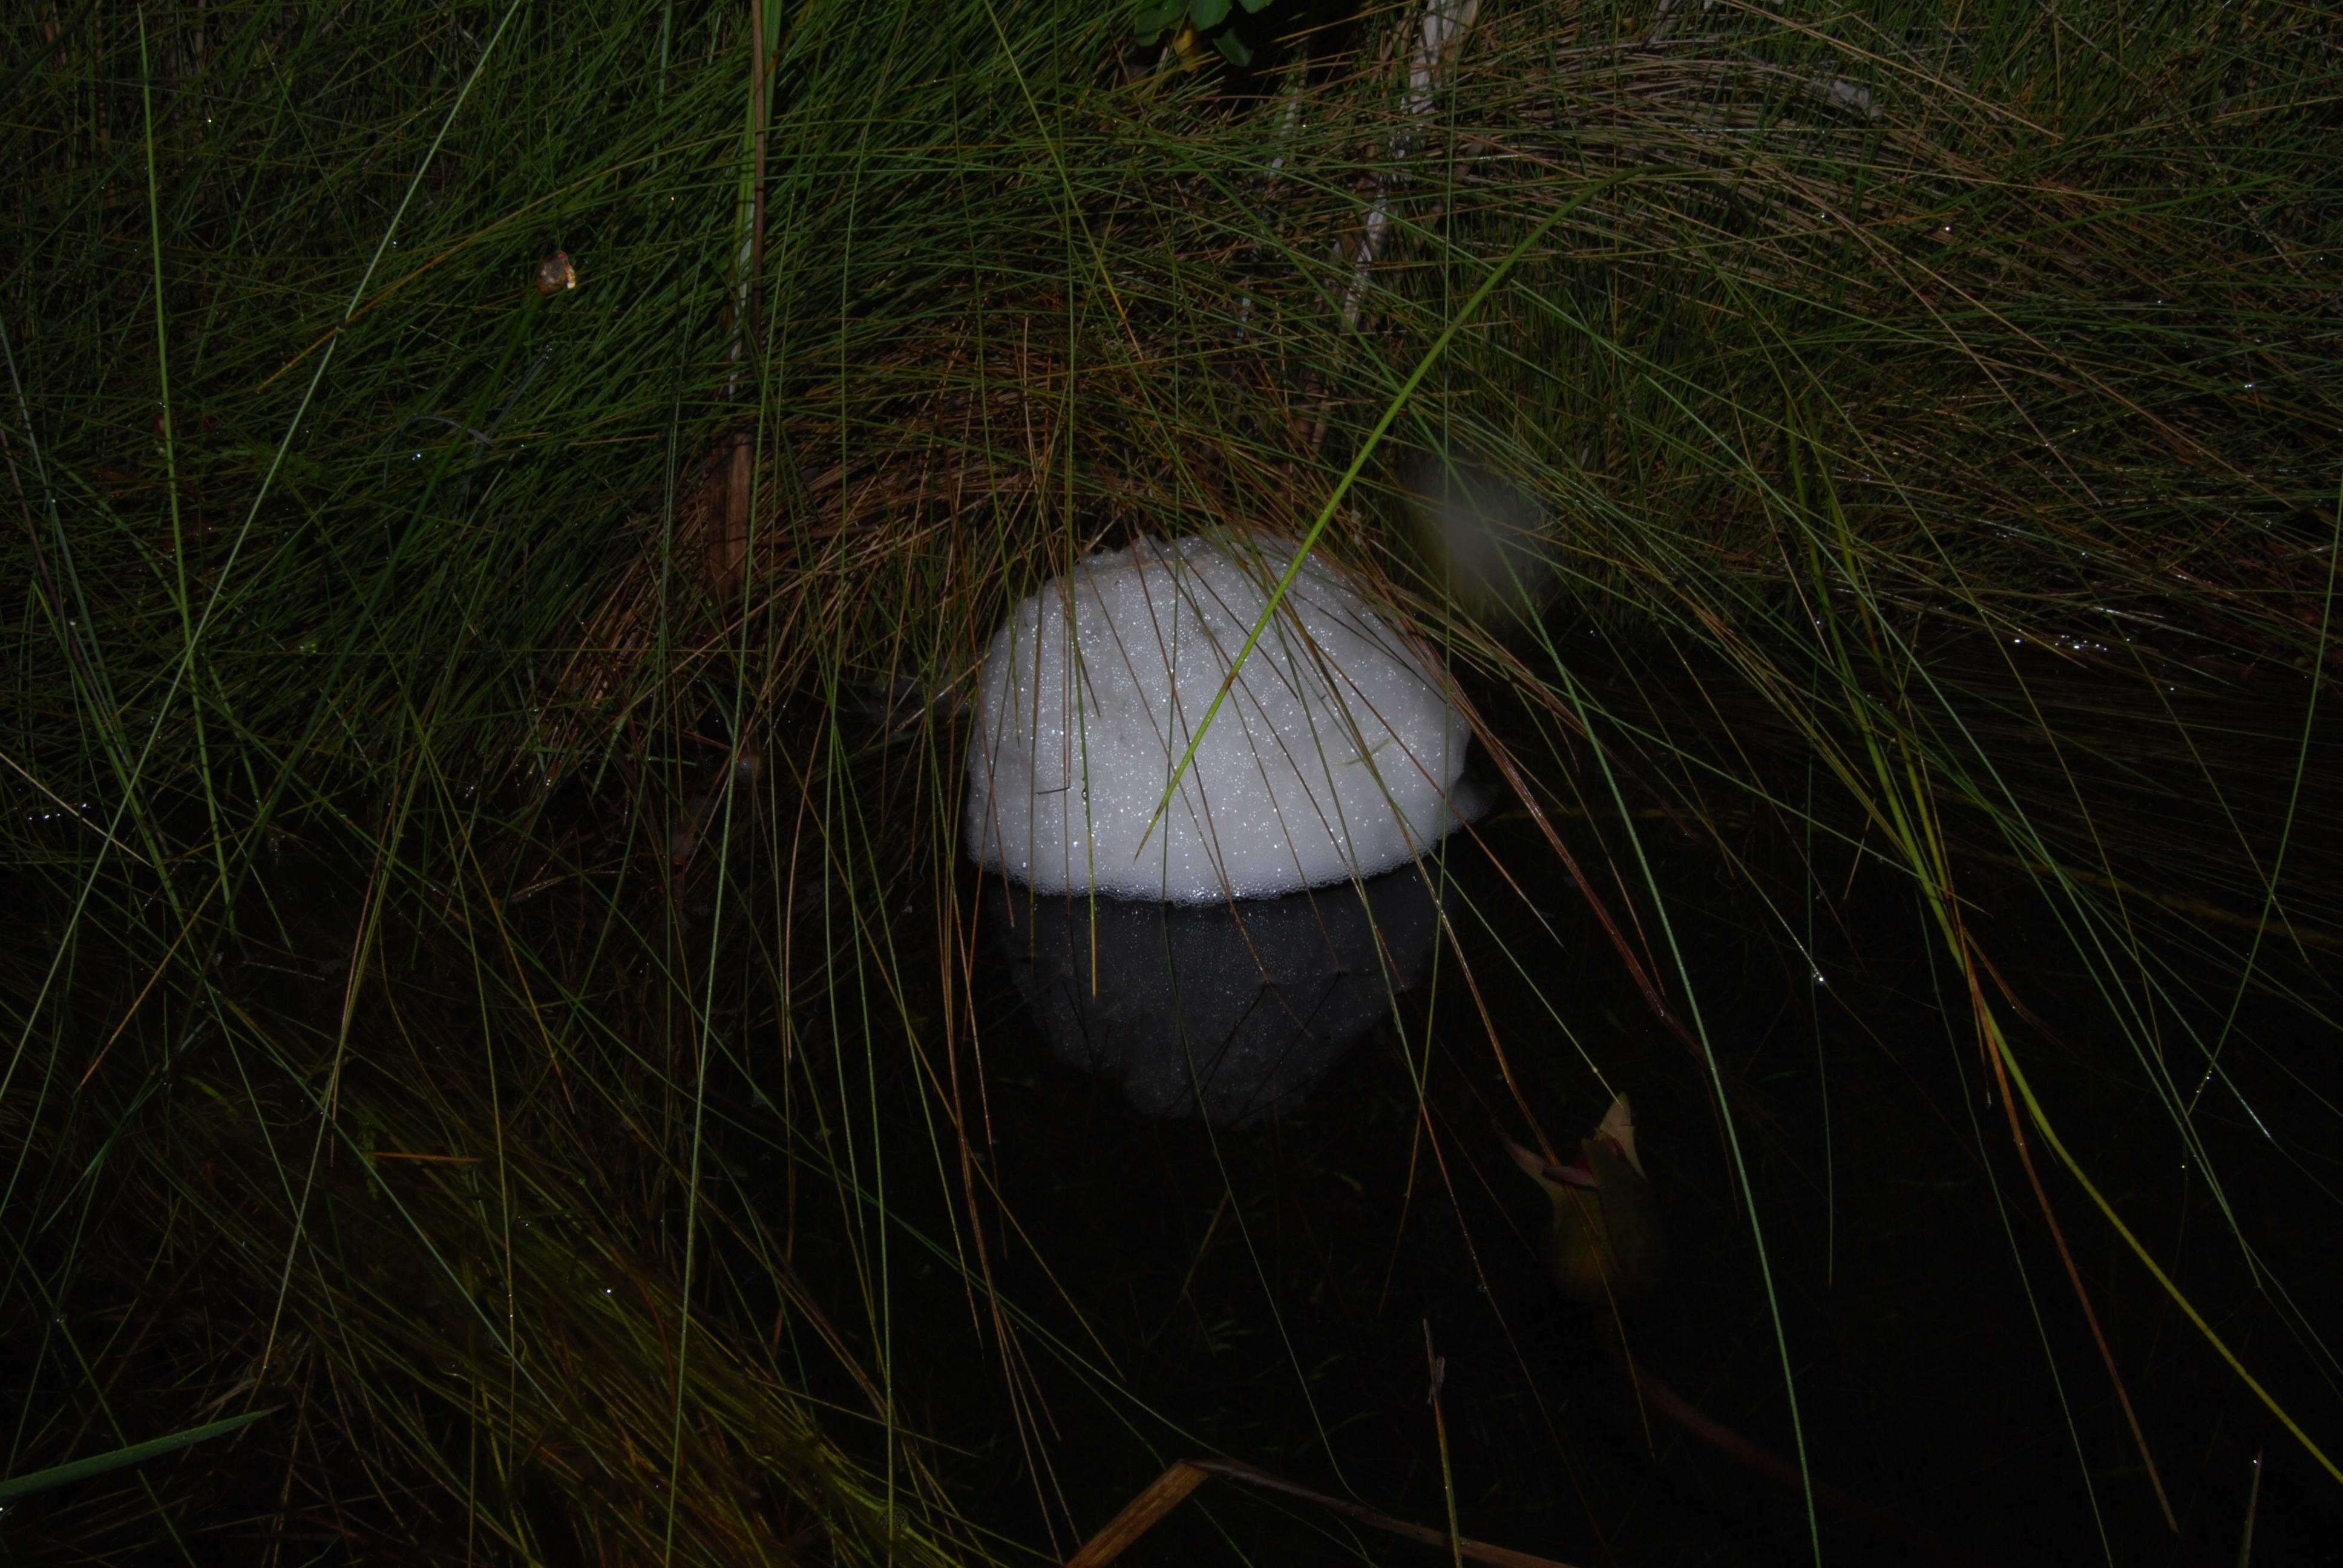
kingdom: Animalia
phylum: Chordata
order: Characiformes
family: Hepsetidae
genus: Hepsetus
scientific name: Hepsetus cuvieri
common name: African pike
